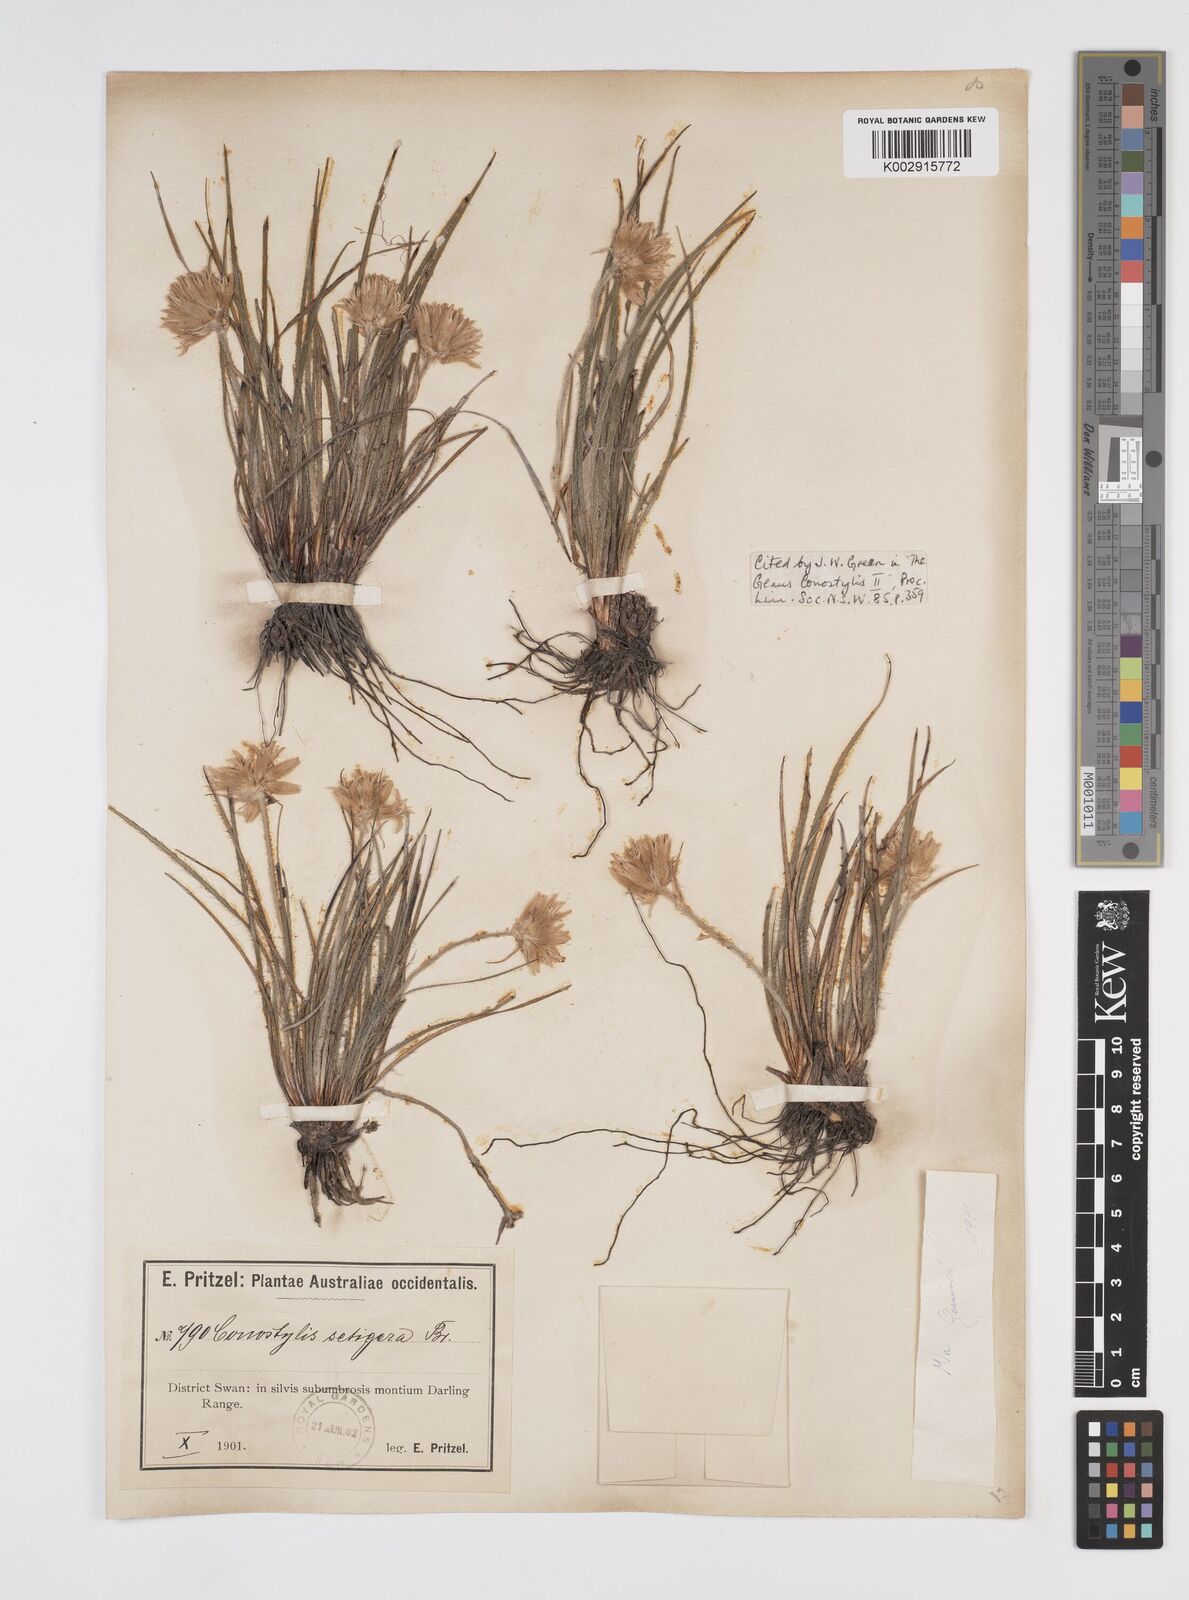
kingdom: Plantae
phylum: Tracheophyta
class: Liliopsida
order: Commelinales
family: Haemodoraceae
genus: Conostylis
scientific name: Conostylis setigera
